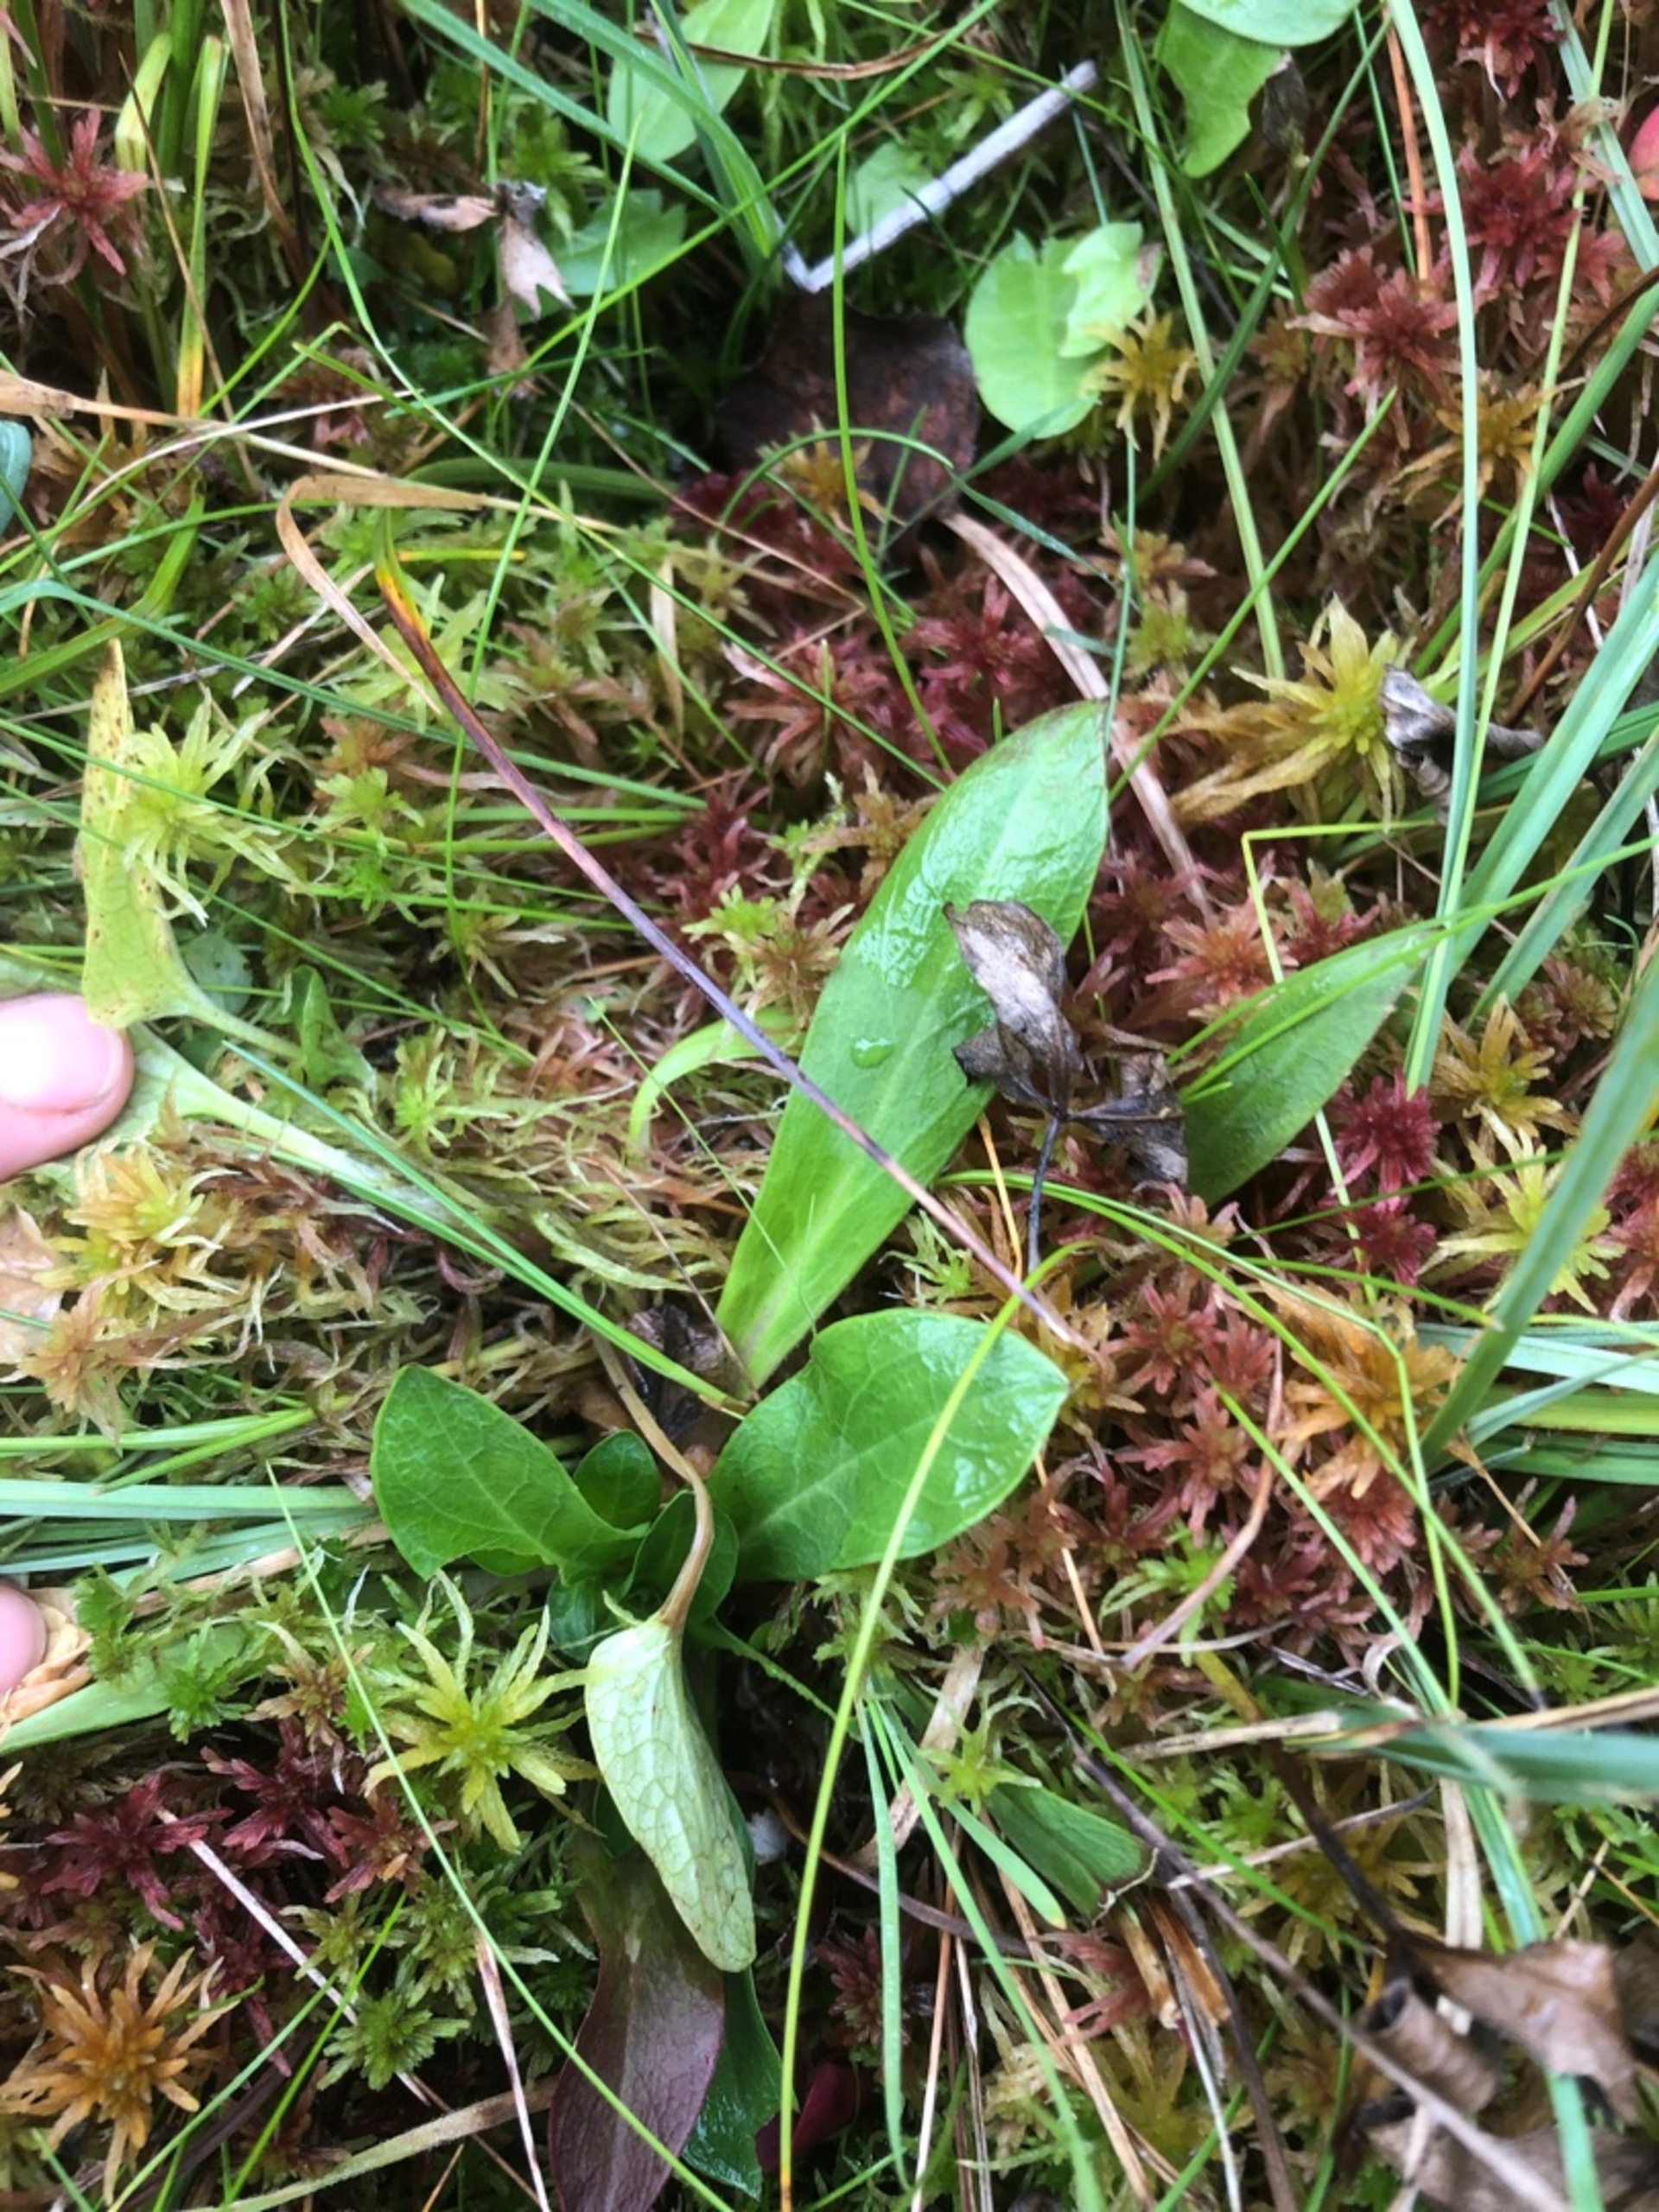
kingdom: Plantae
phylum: Tracheophyta
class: Magnoliopsida
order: Caryophyllales
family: Caryophyllaceae
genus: Silene
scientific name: Silene flos-cuculi
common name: Trævlekrone
